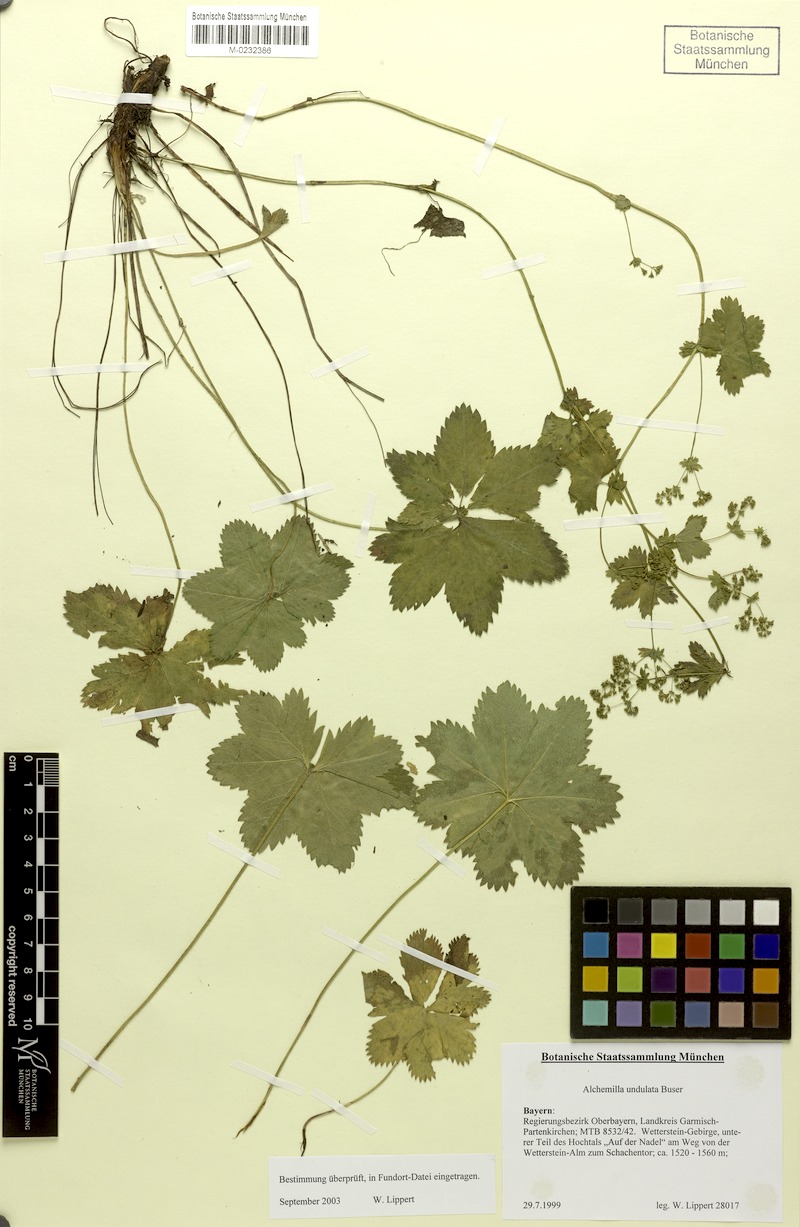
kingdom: Plantae
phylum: Tracheophyta
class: Magnoliopsida
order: Rosales
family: Rosaceae
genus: Alchemilla
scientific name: Alchemilla undulata
